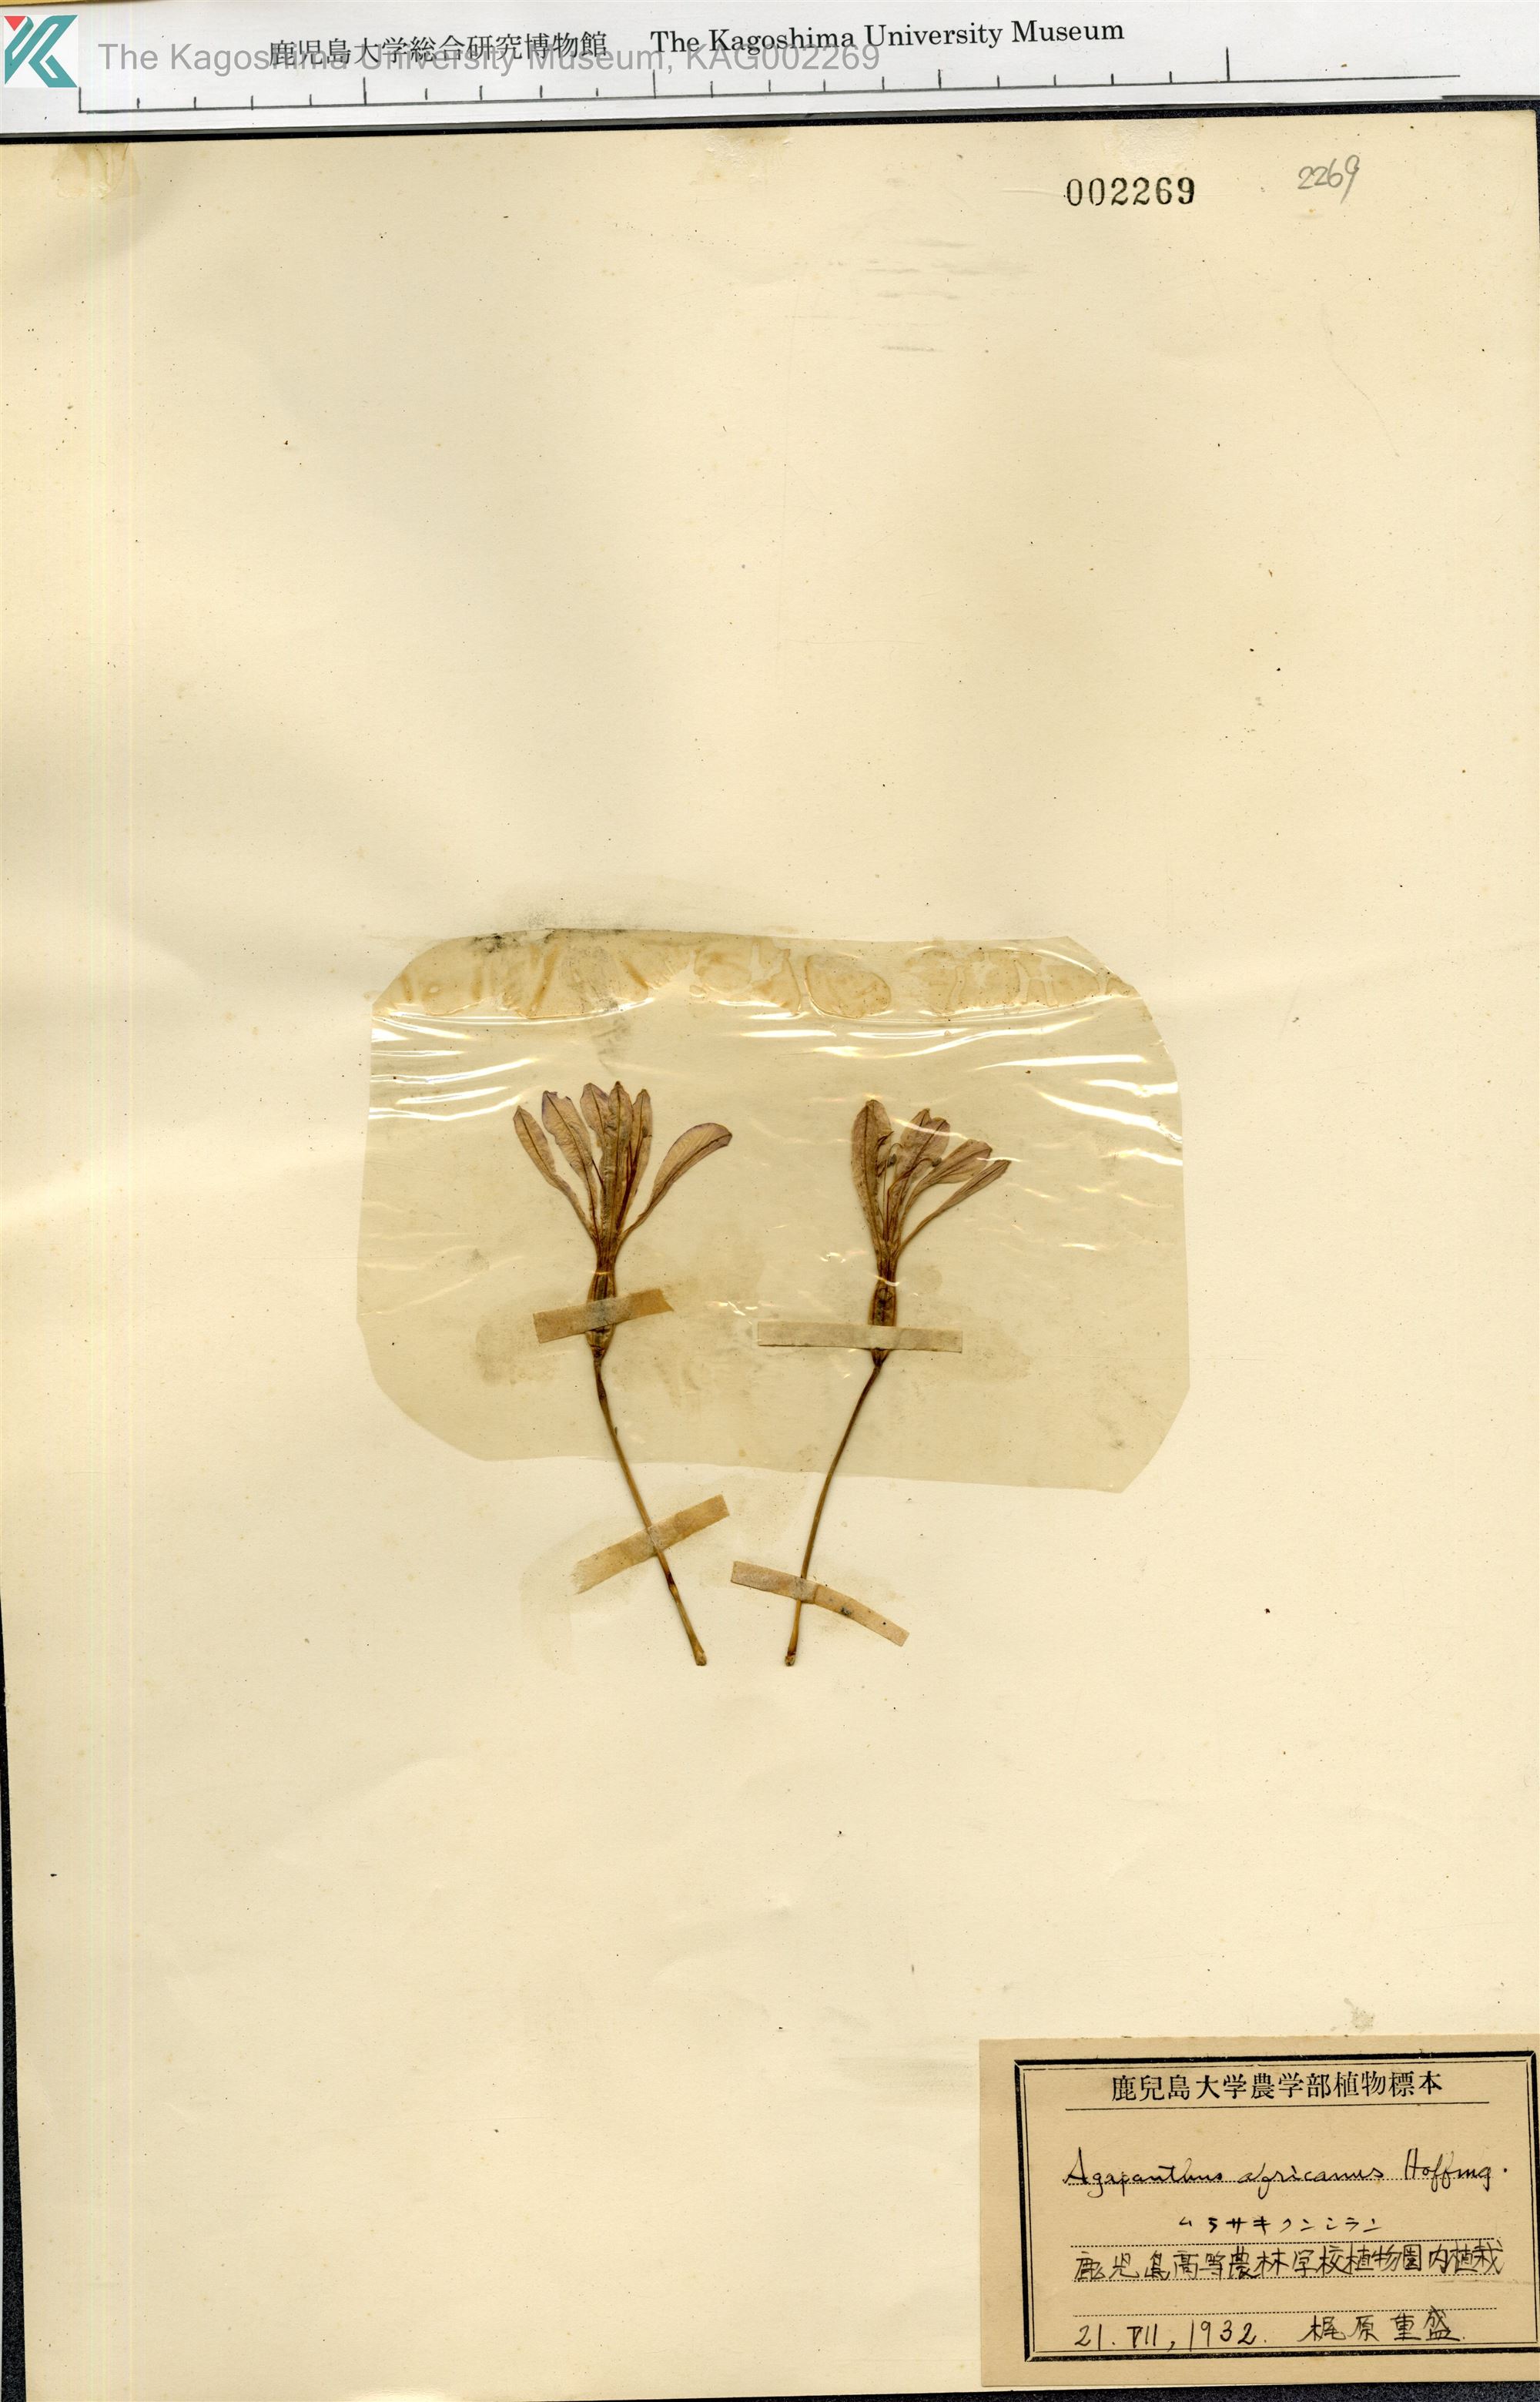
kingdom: Plantae
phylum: Tracheophyta
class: Liliopsida
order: Asparagales
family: Amaryllidaceae
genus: Agapanthus
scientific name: Agapanthus africanus
